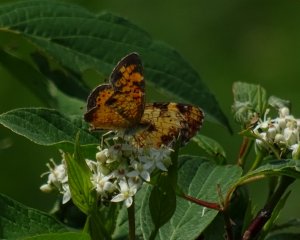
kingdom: Animalia
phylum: Arthropoda
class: Insecta
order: Lepidoptera
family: Nymphalidae
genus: Phyciodes
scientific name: Phyciodes tharos
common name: Pearl Crescent
